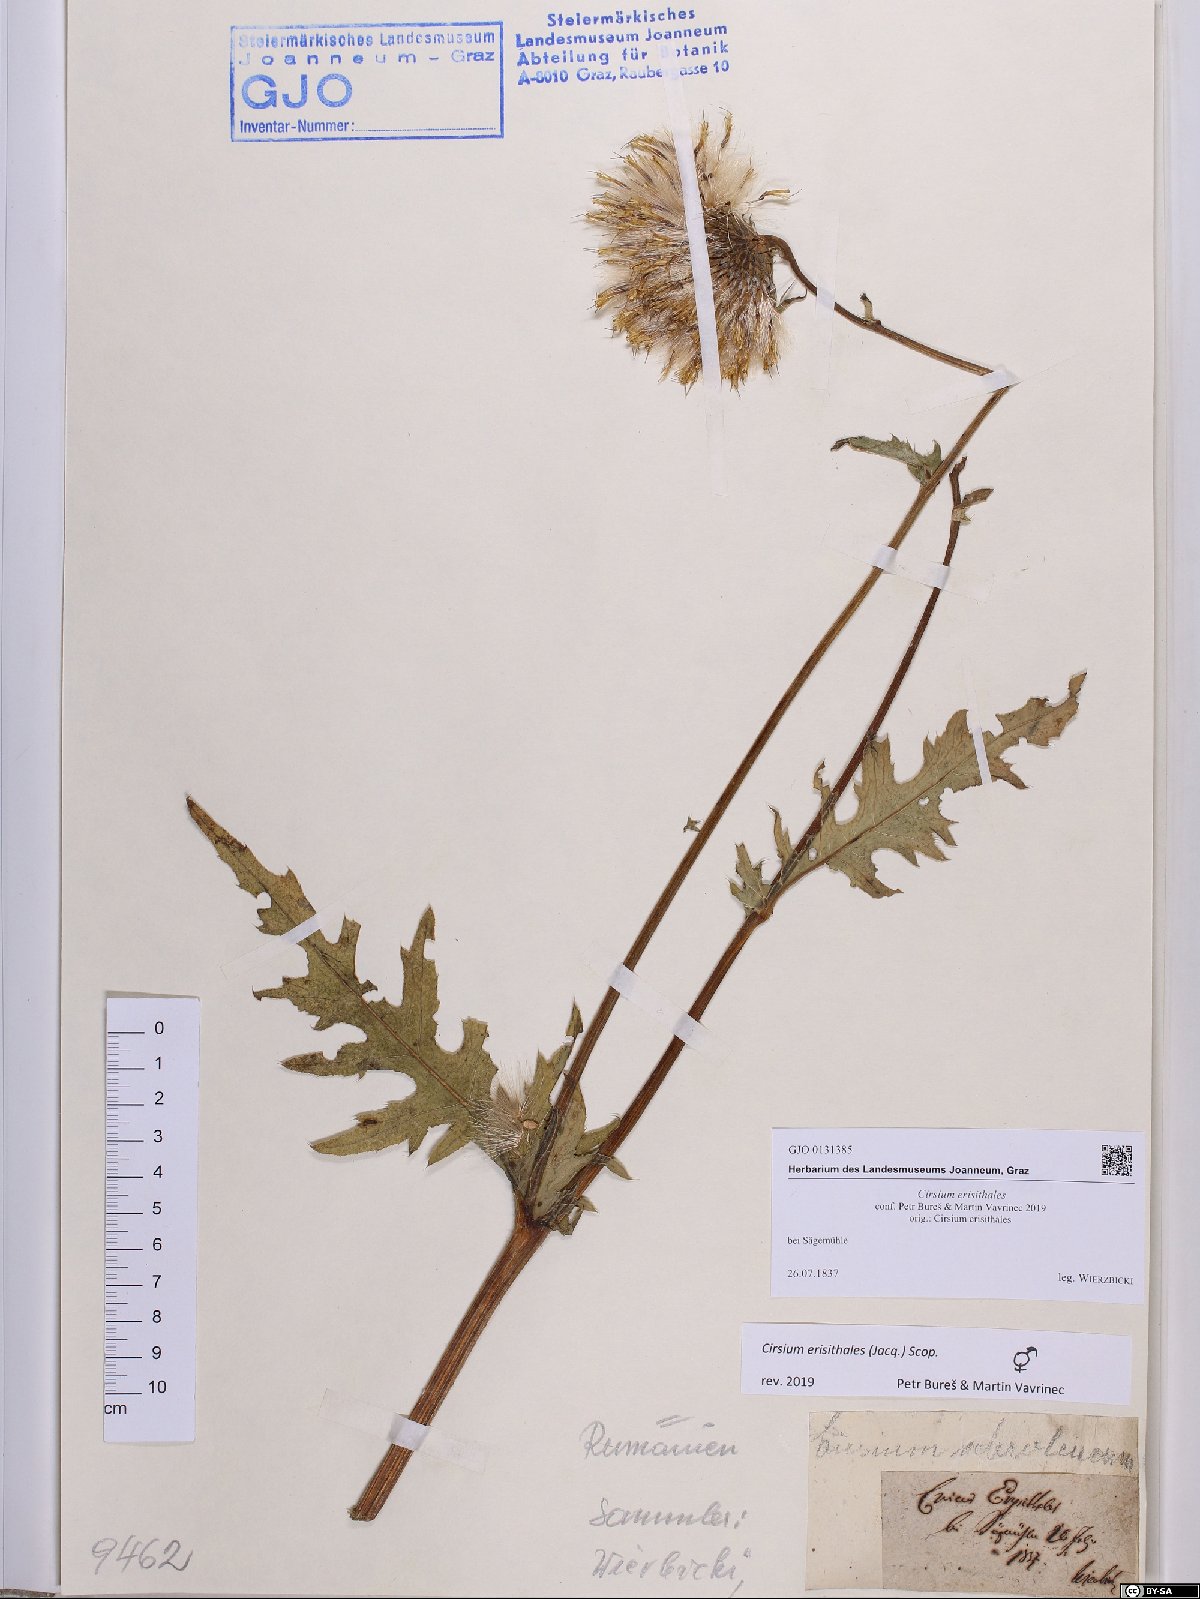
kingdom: Plantae
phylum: Tracheophyta
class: Magnoliopsida
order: Asterales
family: Asteraceae
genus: Cirsium
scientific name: Cirsium erisithales
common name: Yellow thistle
